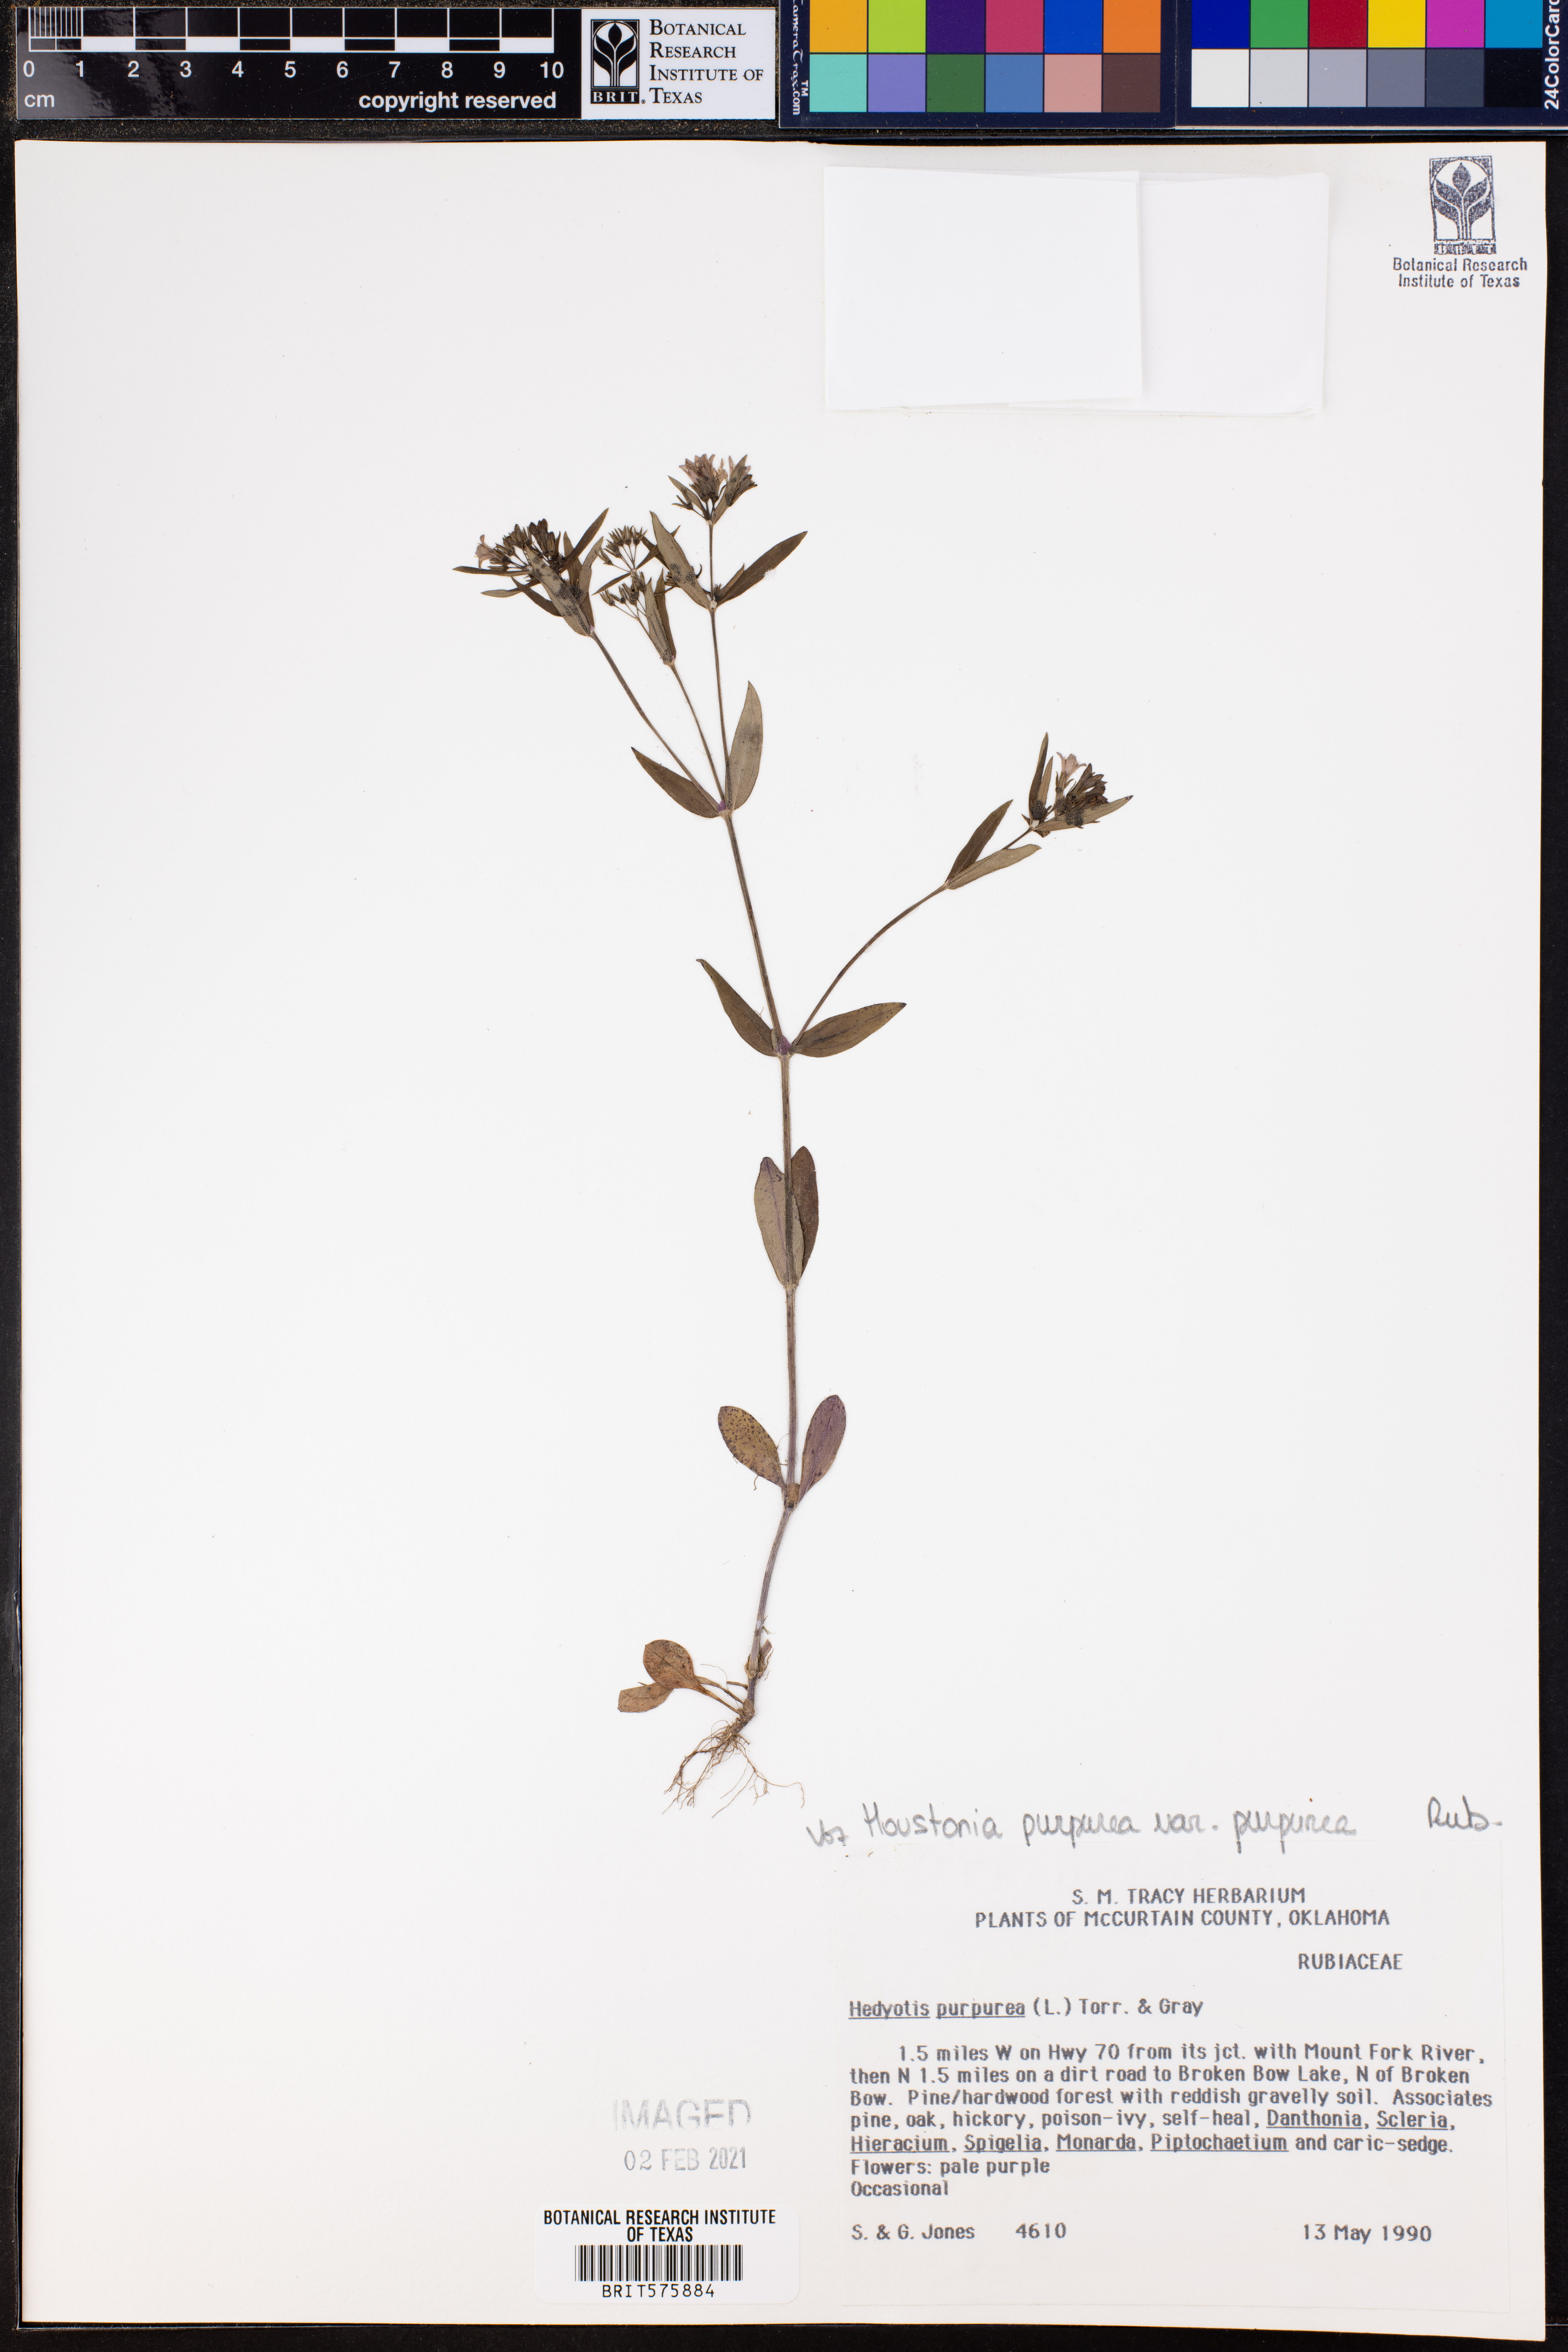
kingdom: Plantae
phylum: Tracheophyta
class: Magnoliopsida
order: Gentianales
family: Rubiaceae
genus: Houstonia
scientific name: Houstonia purpurea
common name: Summer bluet
